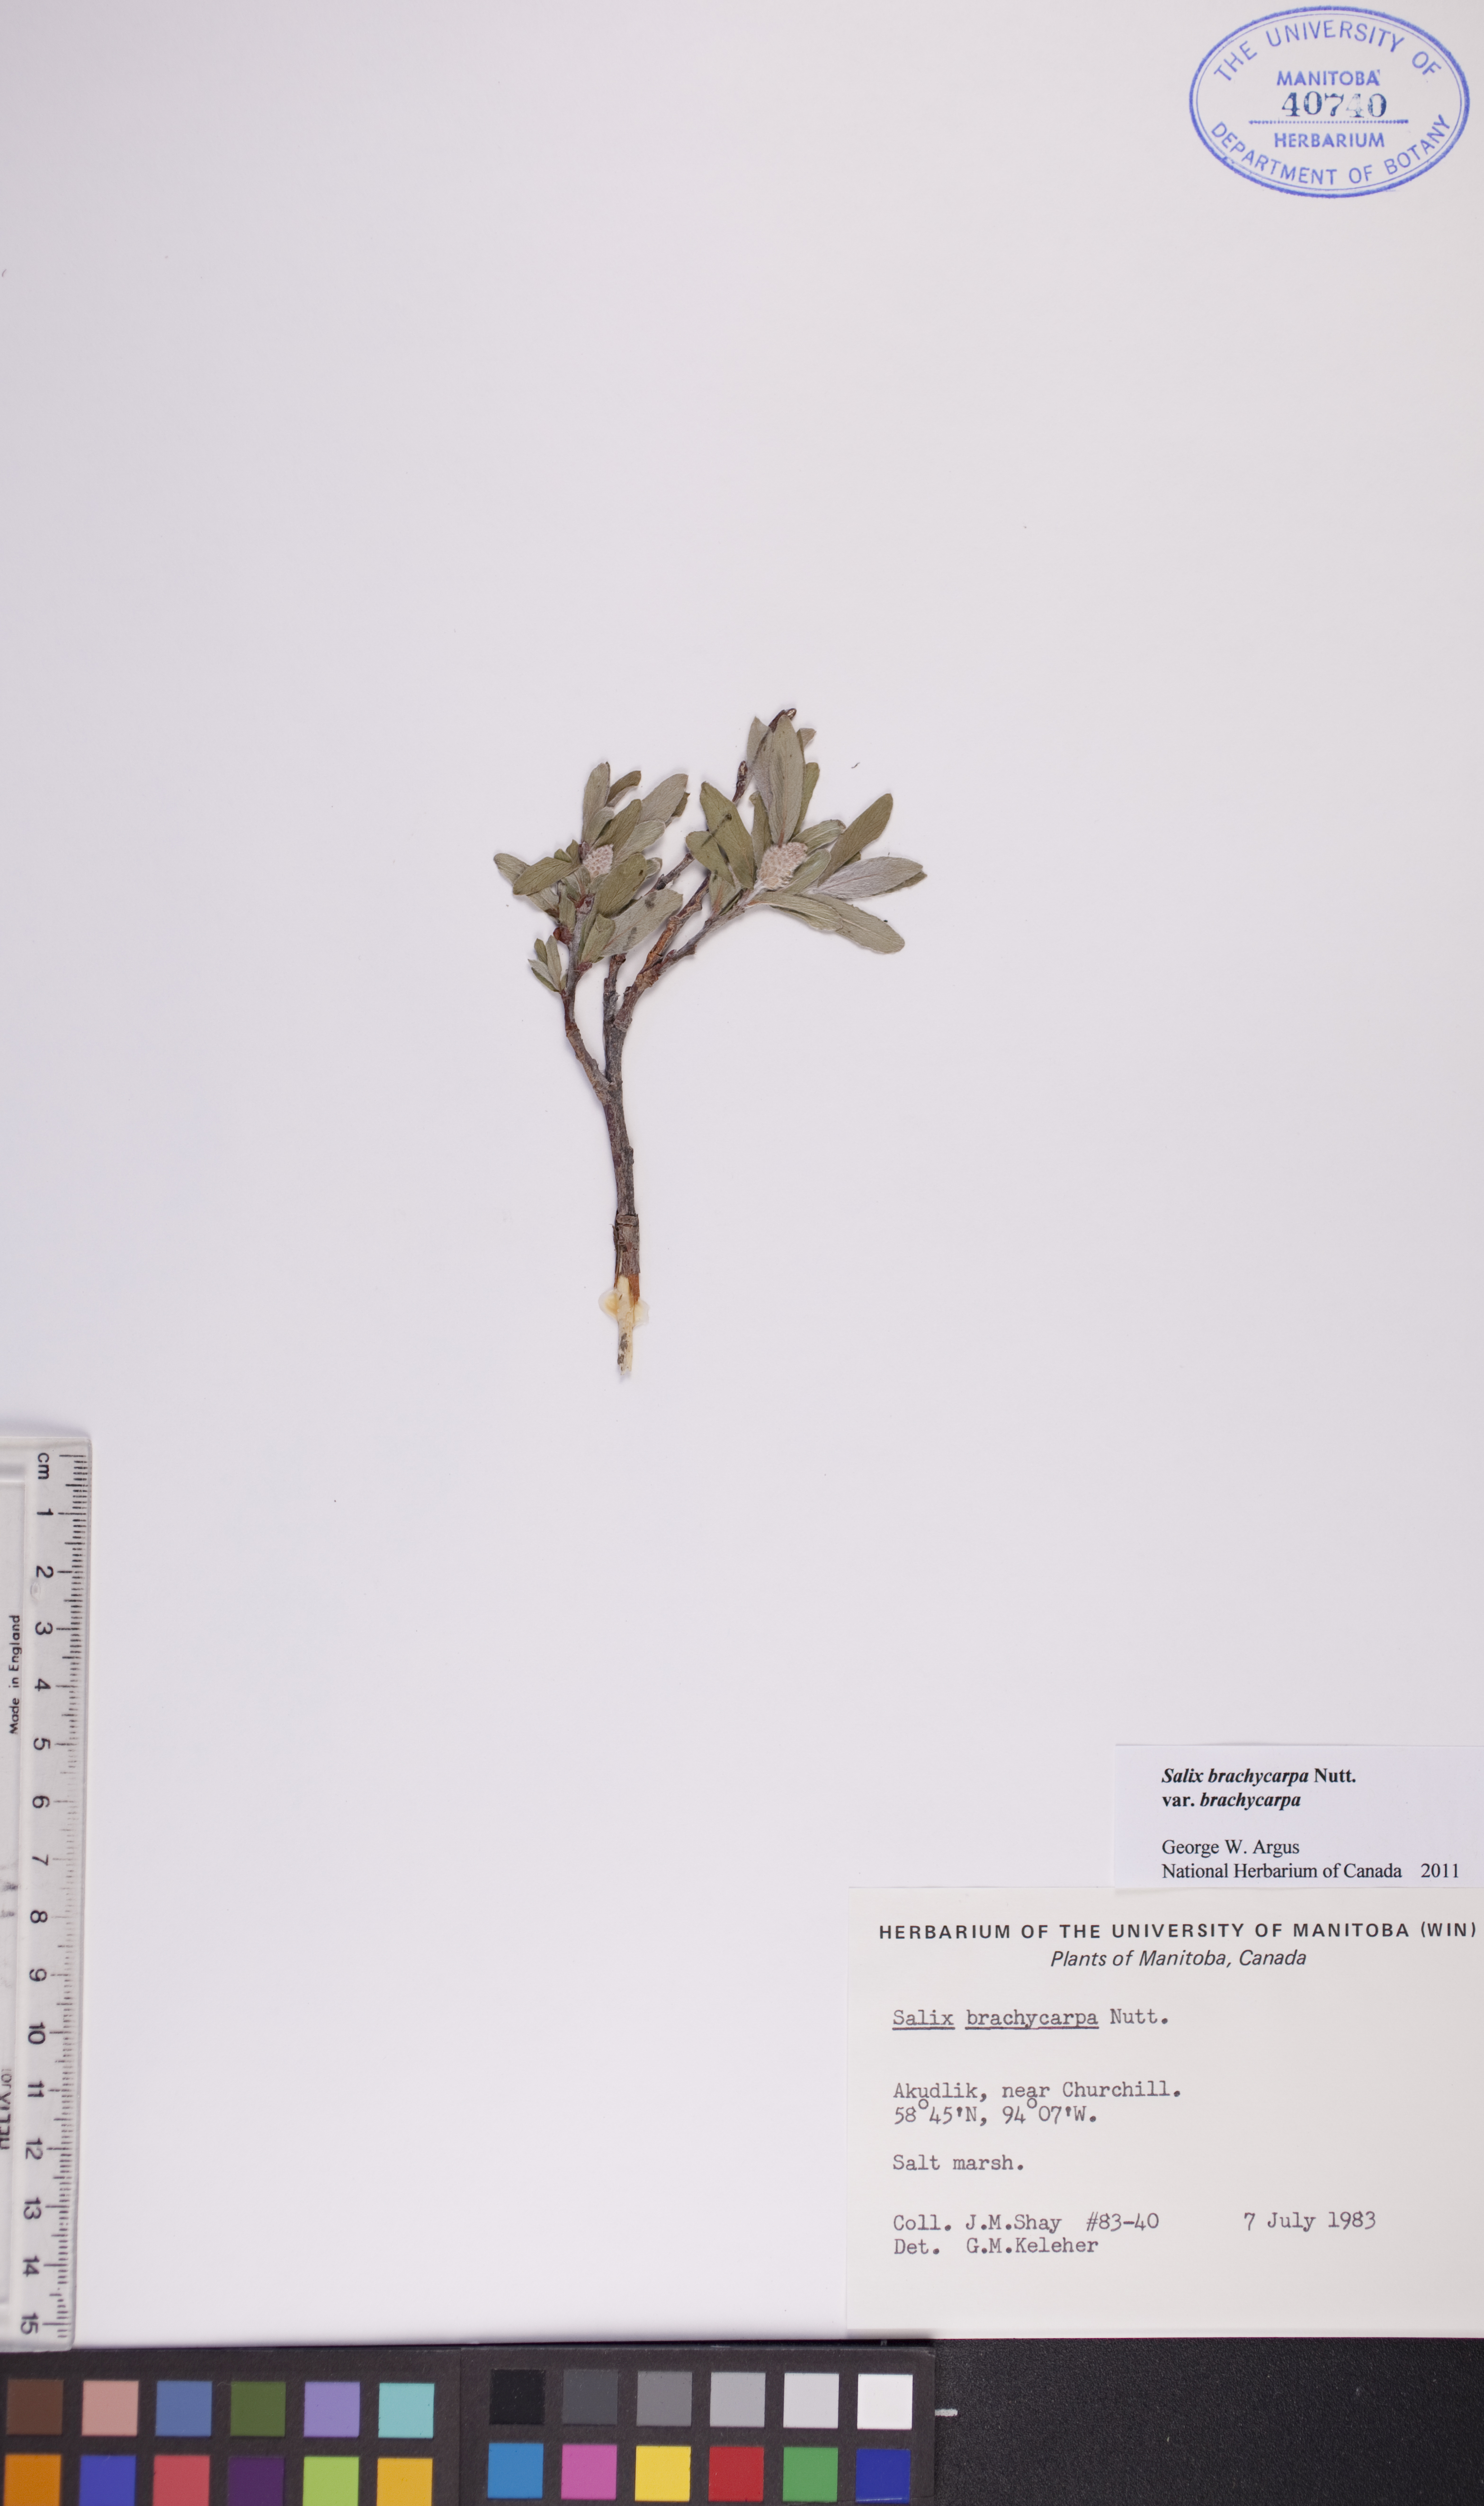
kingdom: Plantae
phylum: Tracheophyta
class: Magnoliopsida
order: Malpighiales
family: Salicaceae
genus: Salix
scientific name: Salix brachycarpa
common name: Barren-ground willow
